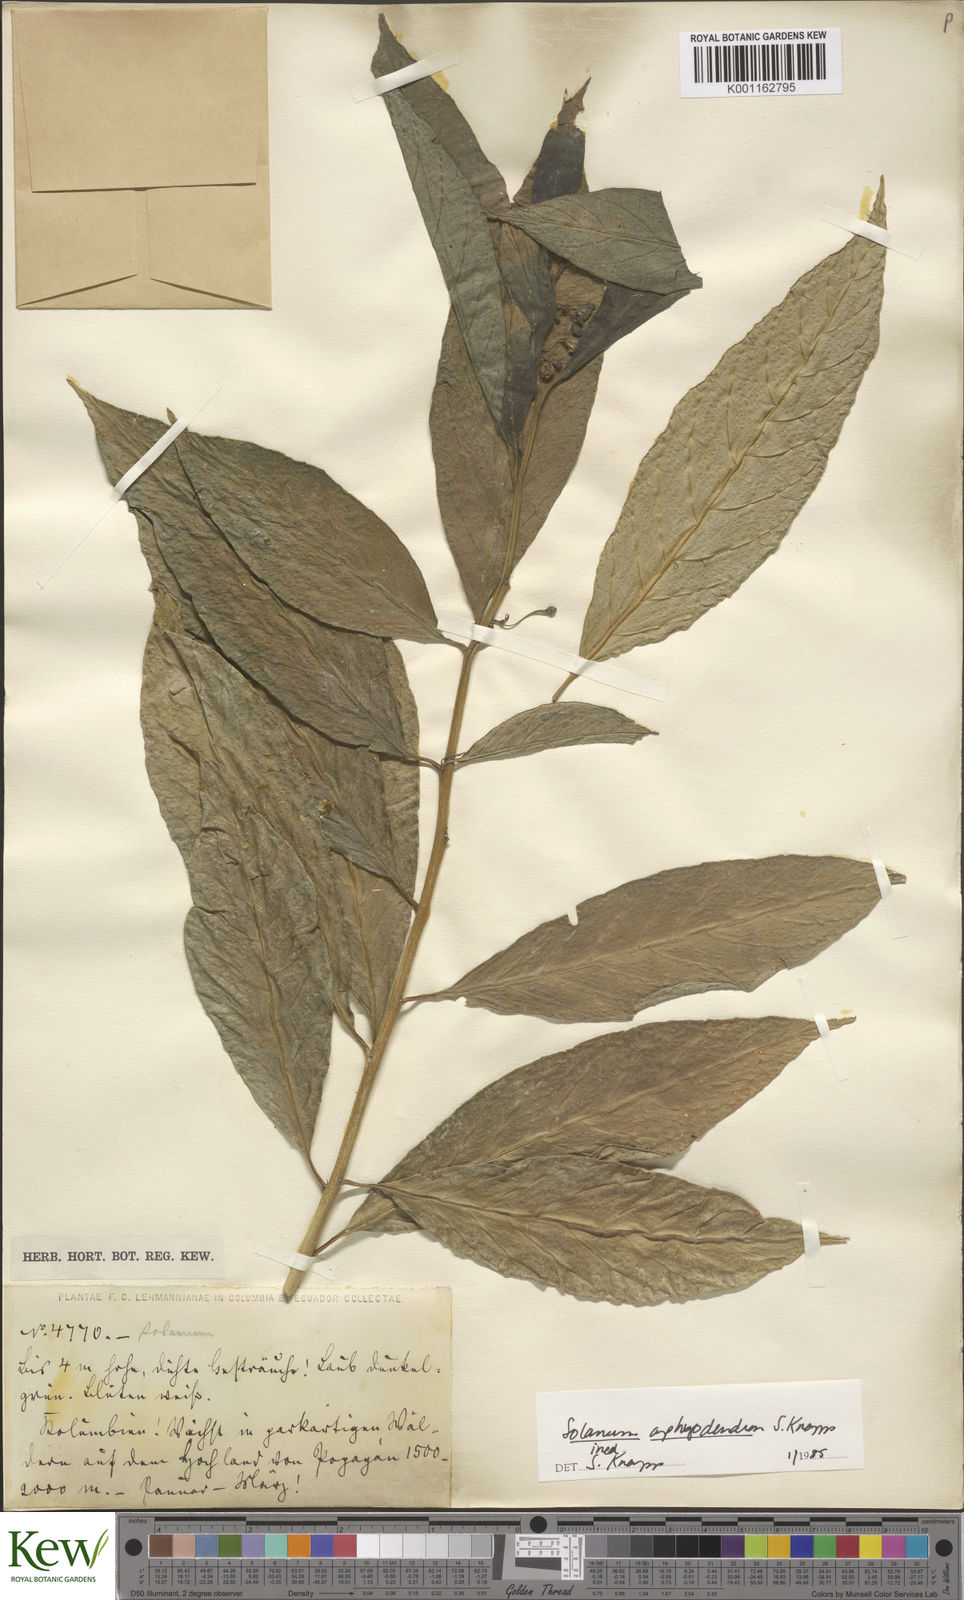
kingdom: Plantae
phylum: Tracheophyta
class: Magnoliopsida
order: Solanales
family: Solanaceae
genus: Solanum
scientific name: Solanum aphyodendron
